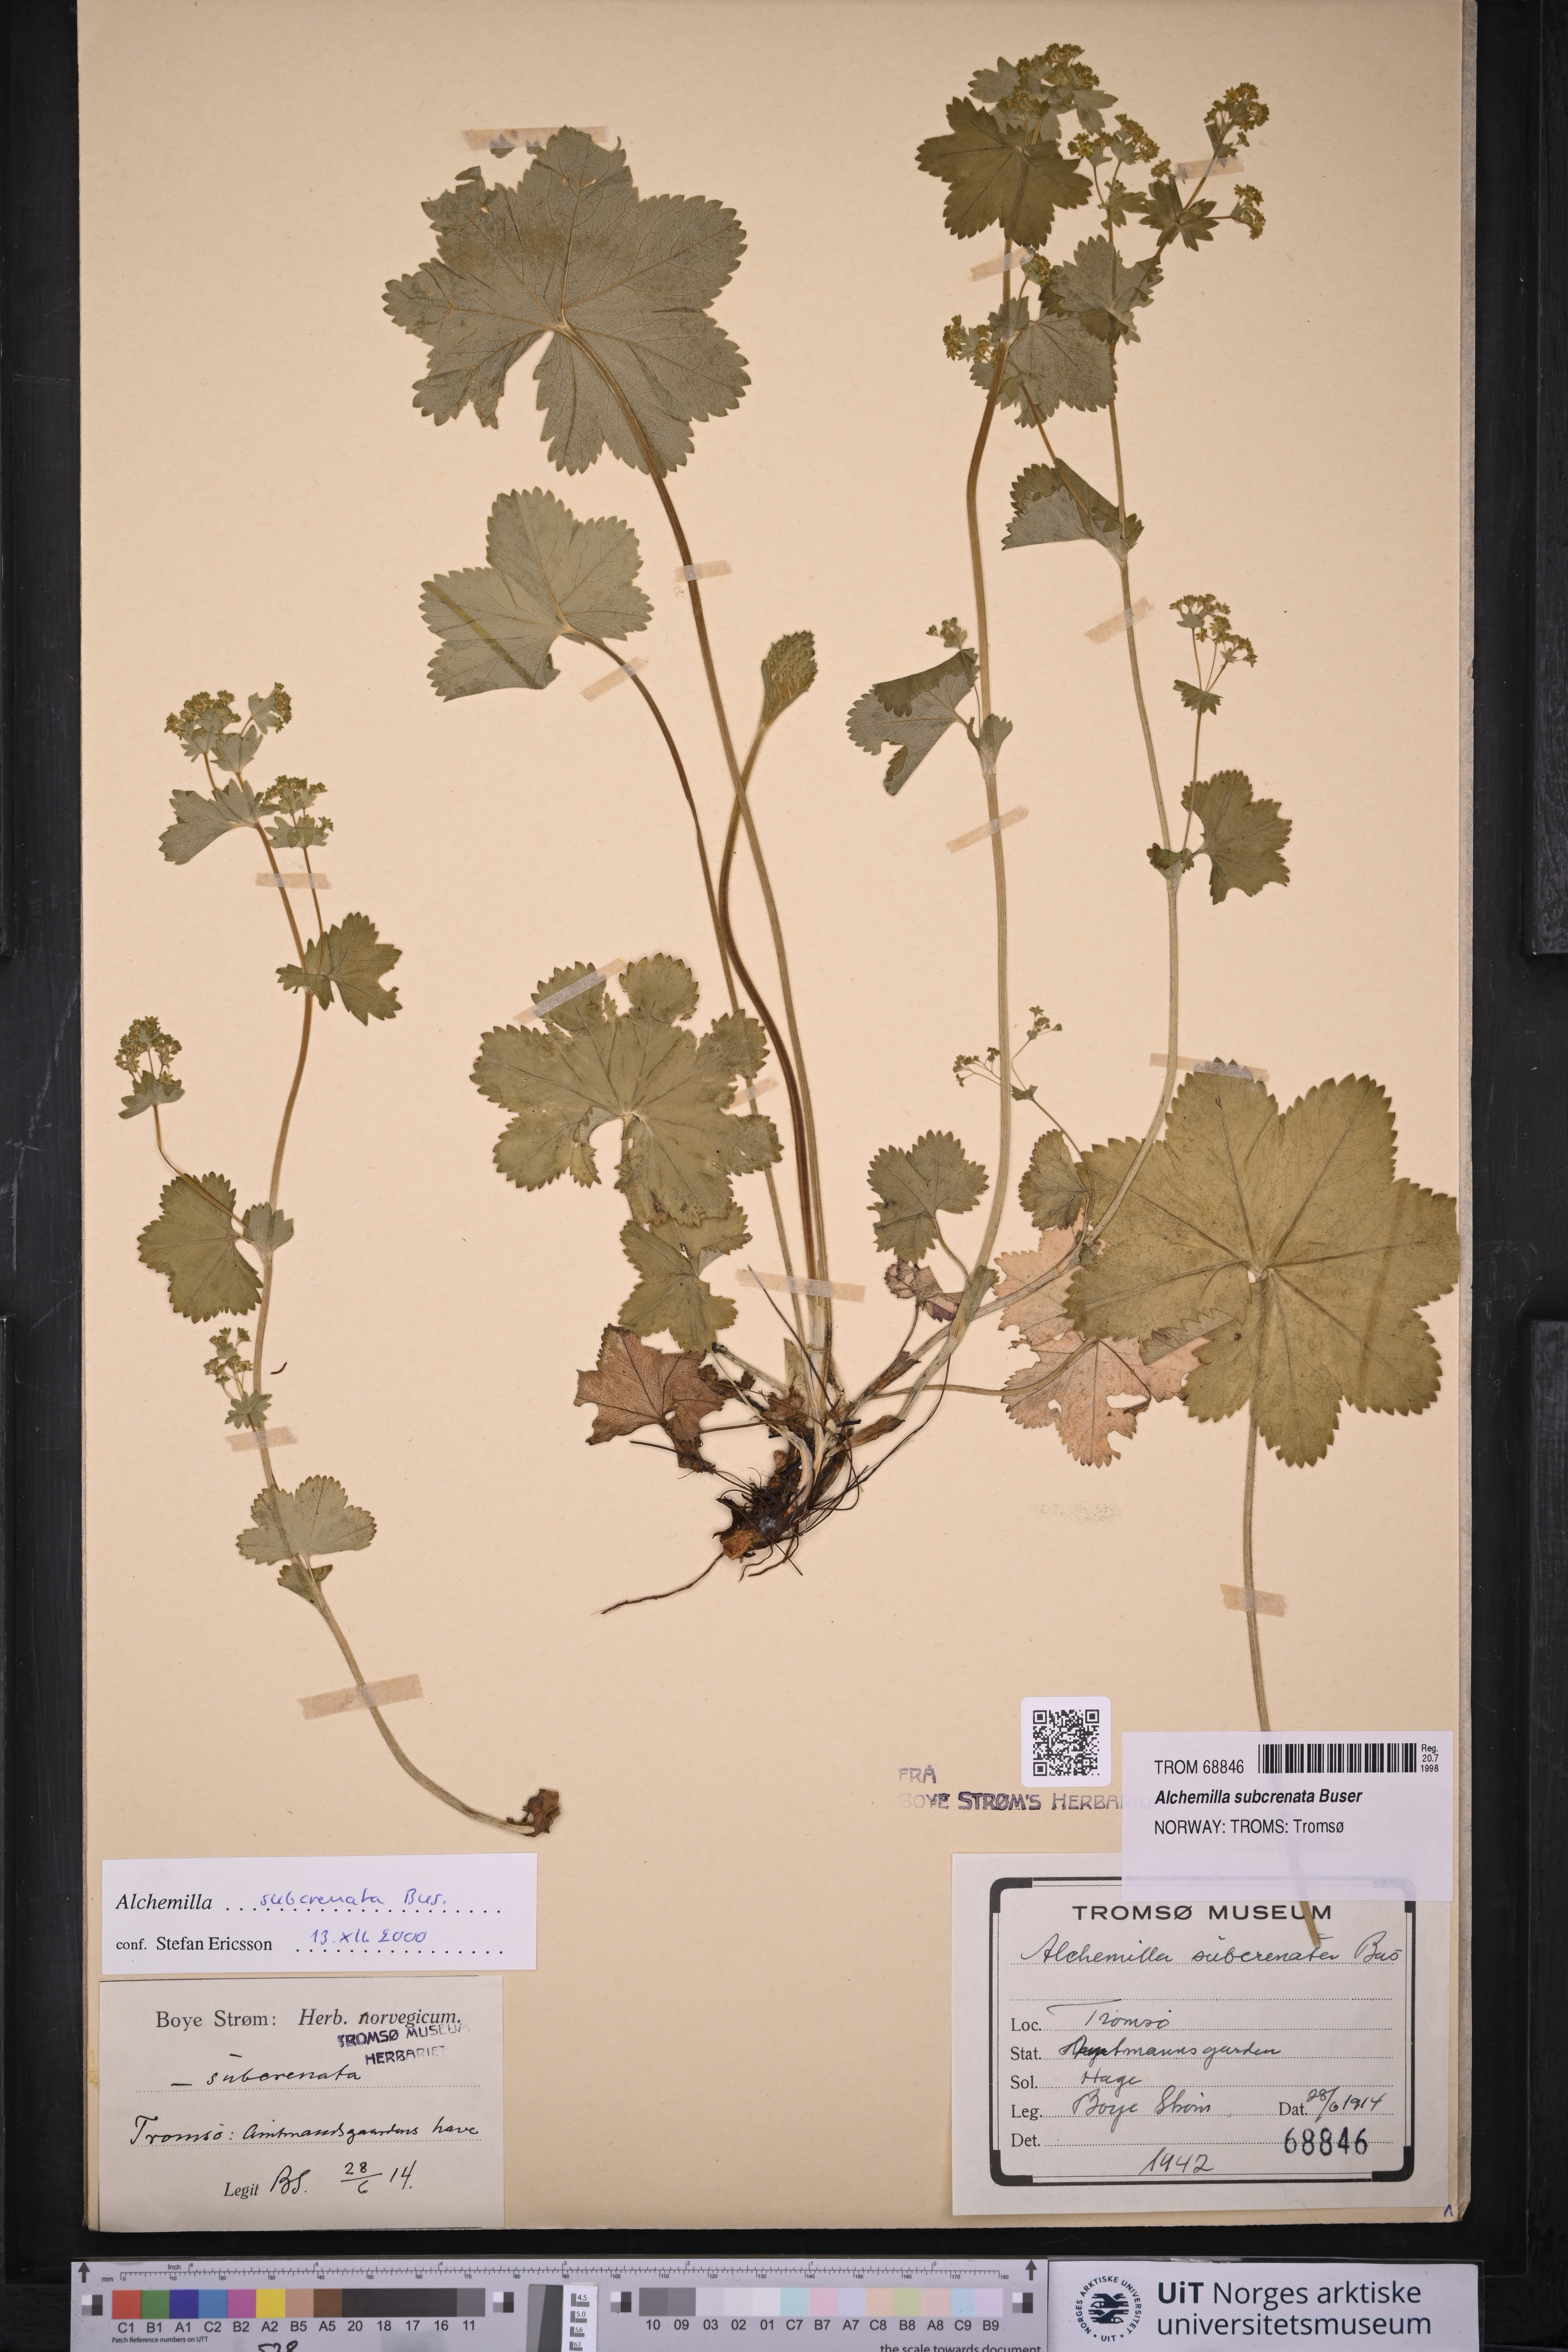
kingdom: Plantae
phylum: Tracheophyta
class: Magnoliopsida
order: Rosales
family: Rosaceae
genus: Alchemilla
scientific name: Alchemilla subcrenata
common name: Broadtooth lady's mantle
